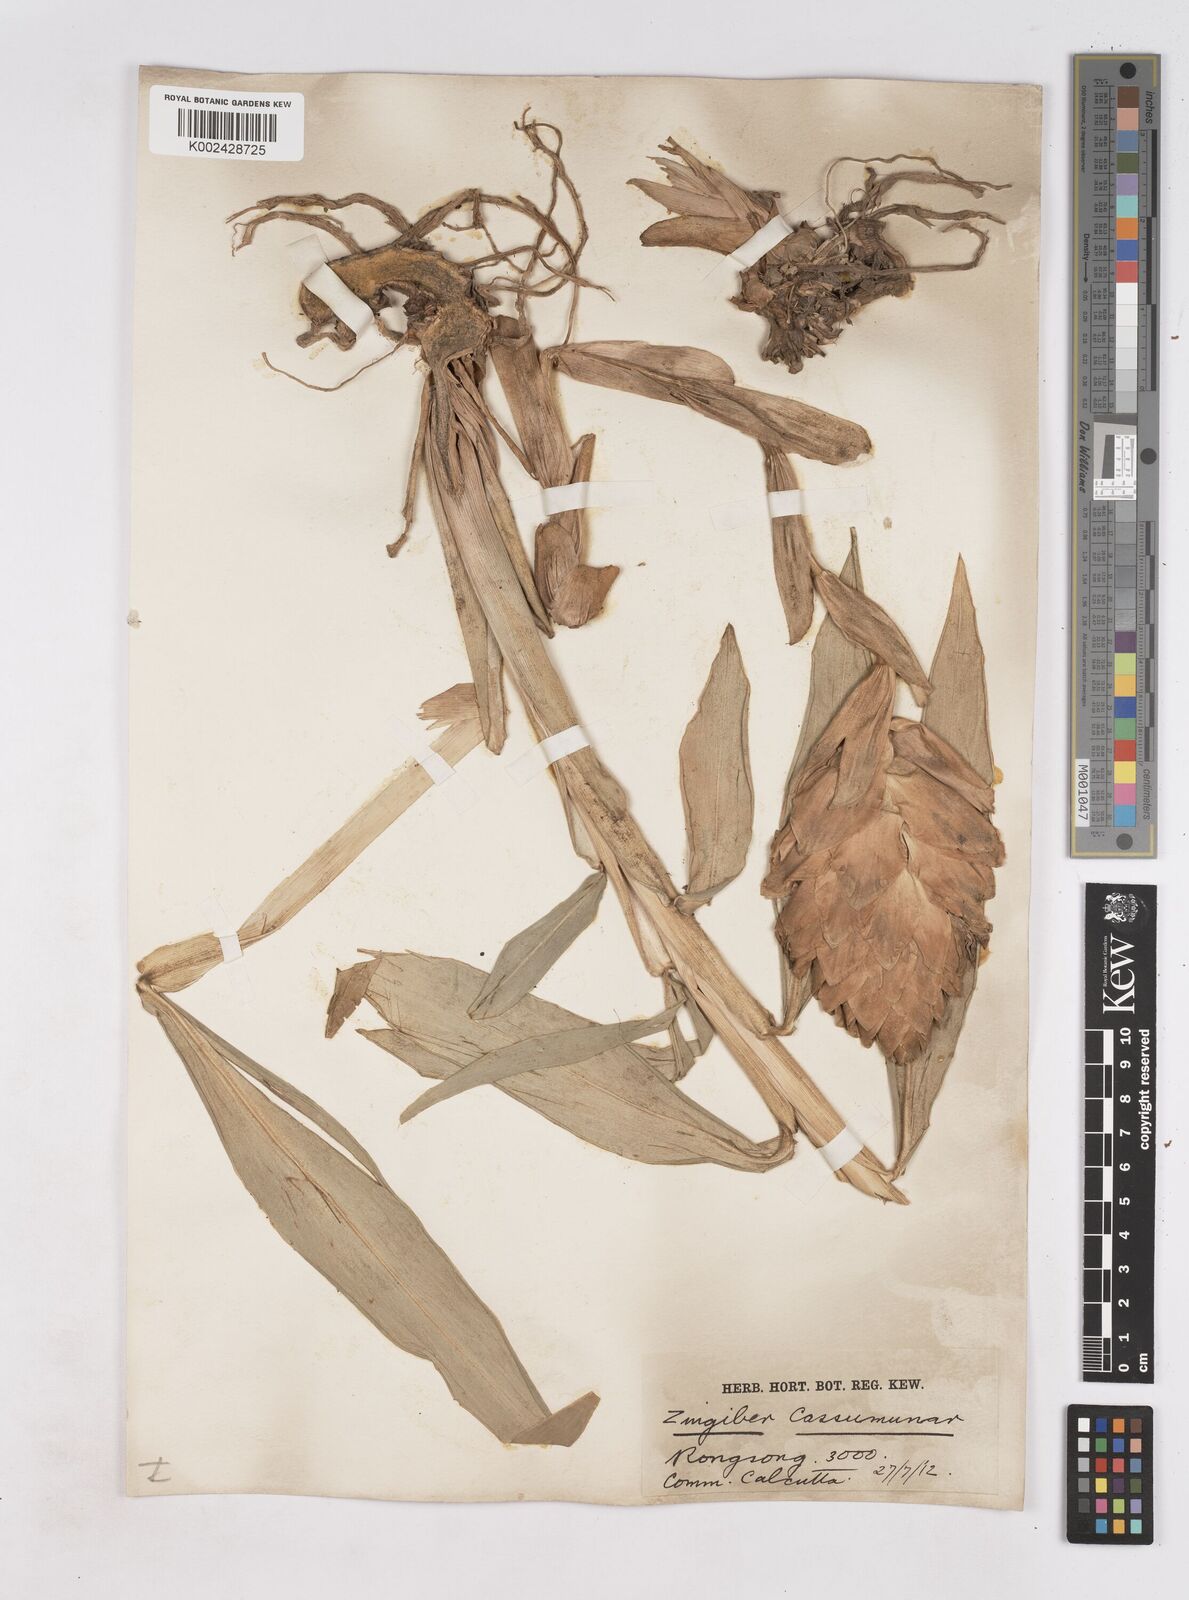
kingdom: Plantae
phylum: Tracheophyta
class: Liliopsida
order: Zingiberales
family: Zingiberaceae
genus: Zingiber
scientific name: Zingiber montanum
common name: Bengal ginger
